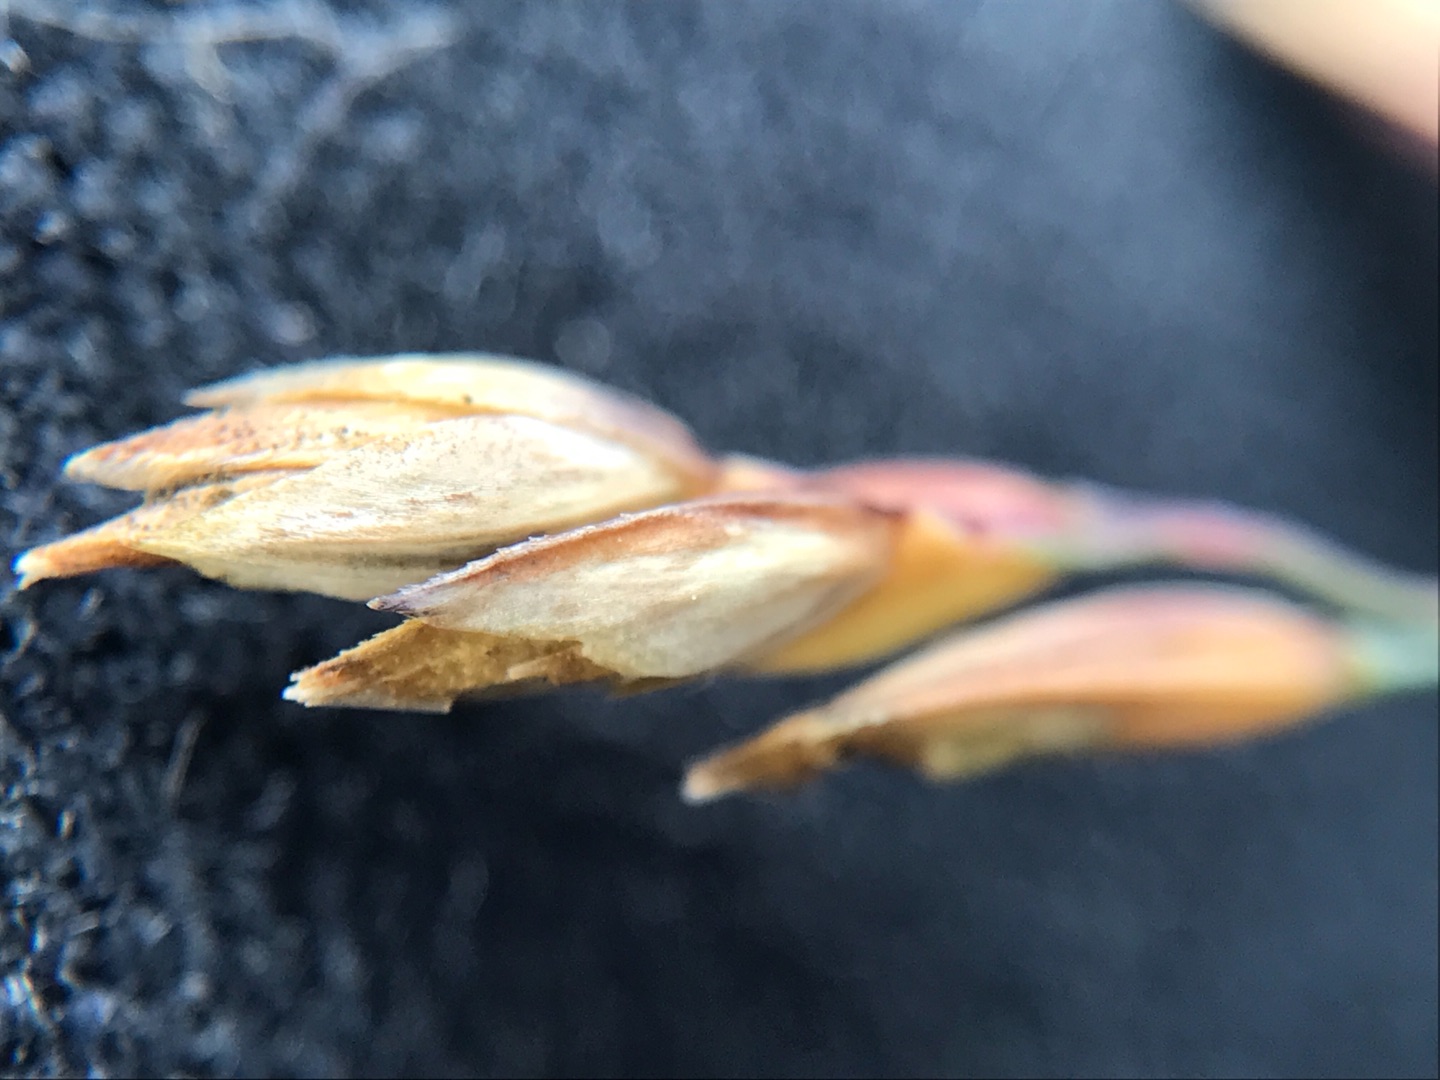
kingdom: Plantae
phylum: Tracheophyta
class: Liliopsida
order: Poales
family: Poaceae
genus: Poa
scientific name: Poa pratensis
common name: Eng-rapgræs
